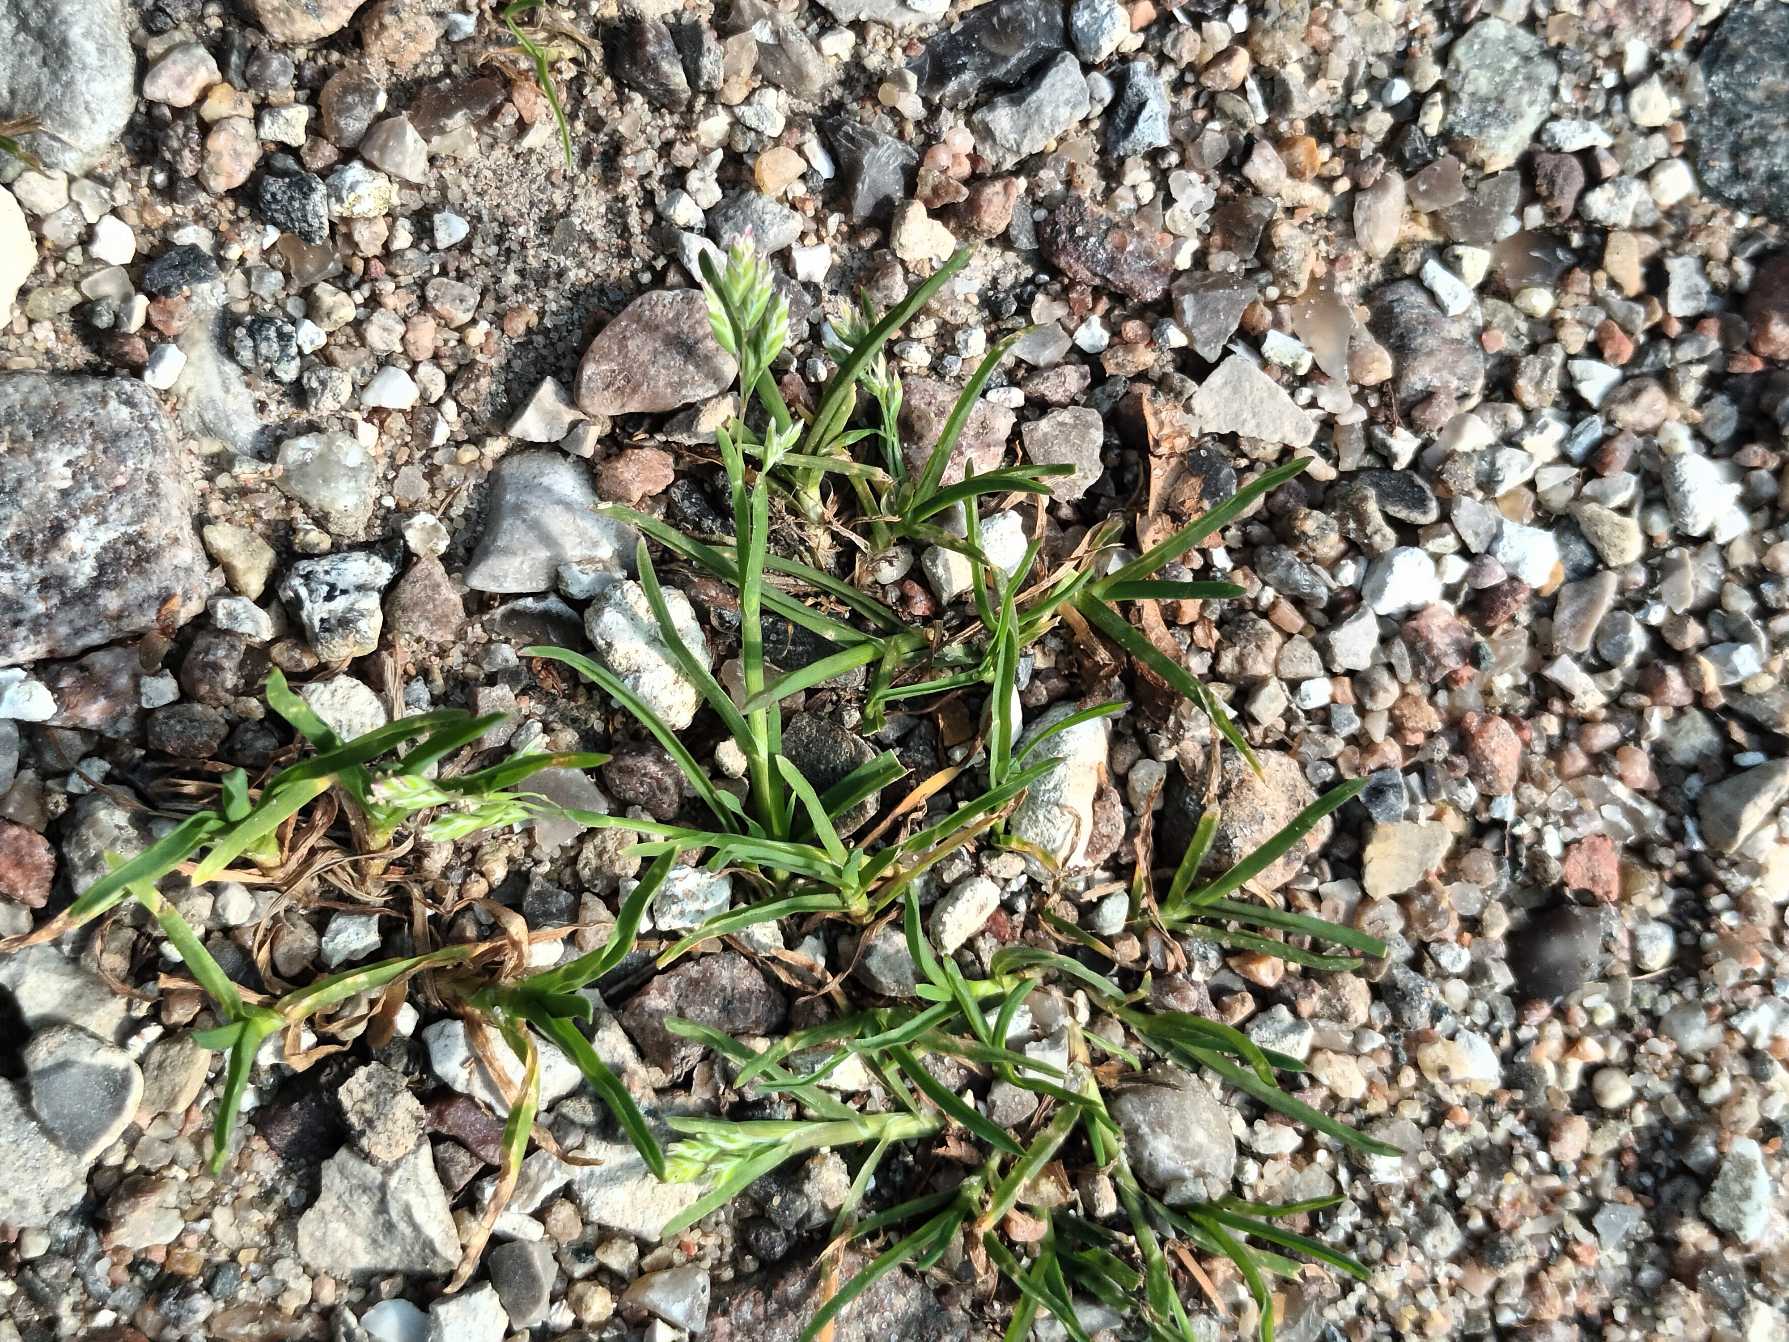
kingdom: Plantae
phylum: Tracheophyta
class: Liliopsida
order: Poales
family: Poaceae
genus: Poa
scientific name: Poa annua
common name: Enårig rapgræs
